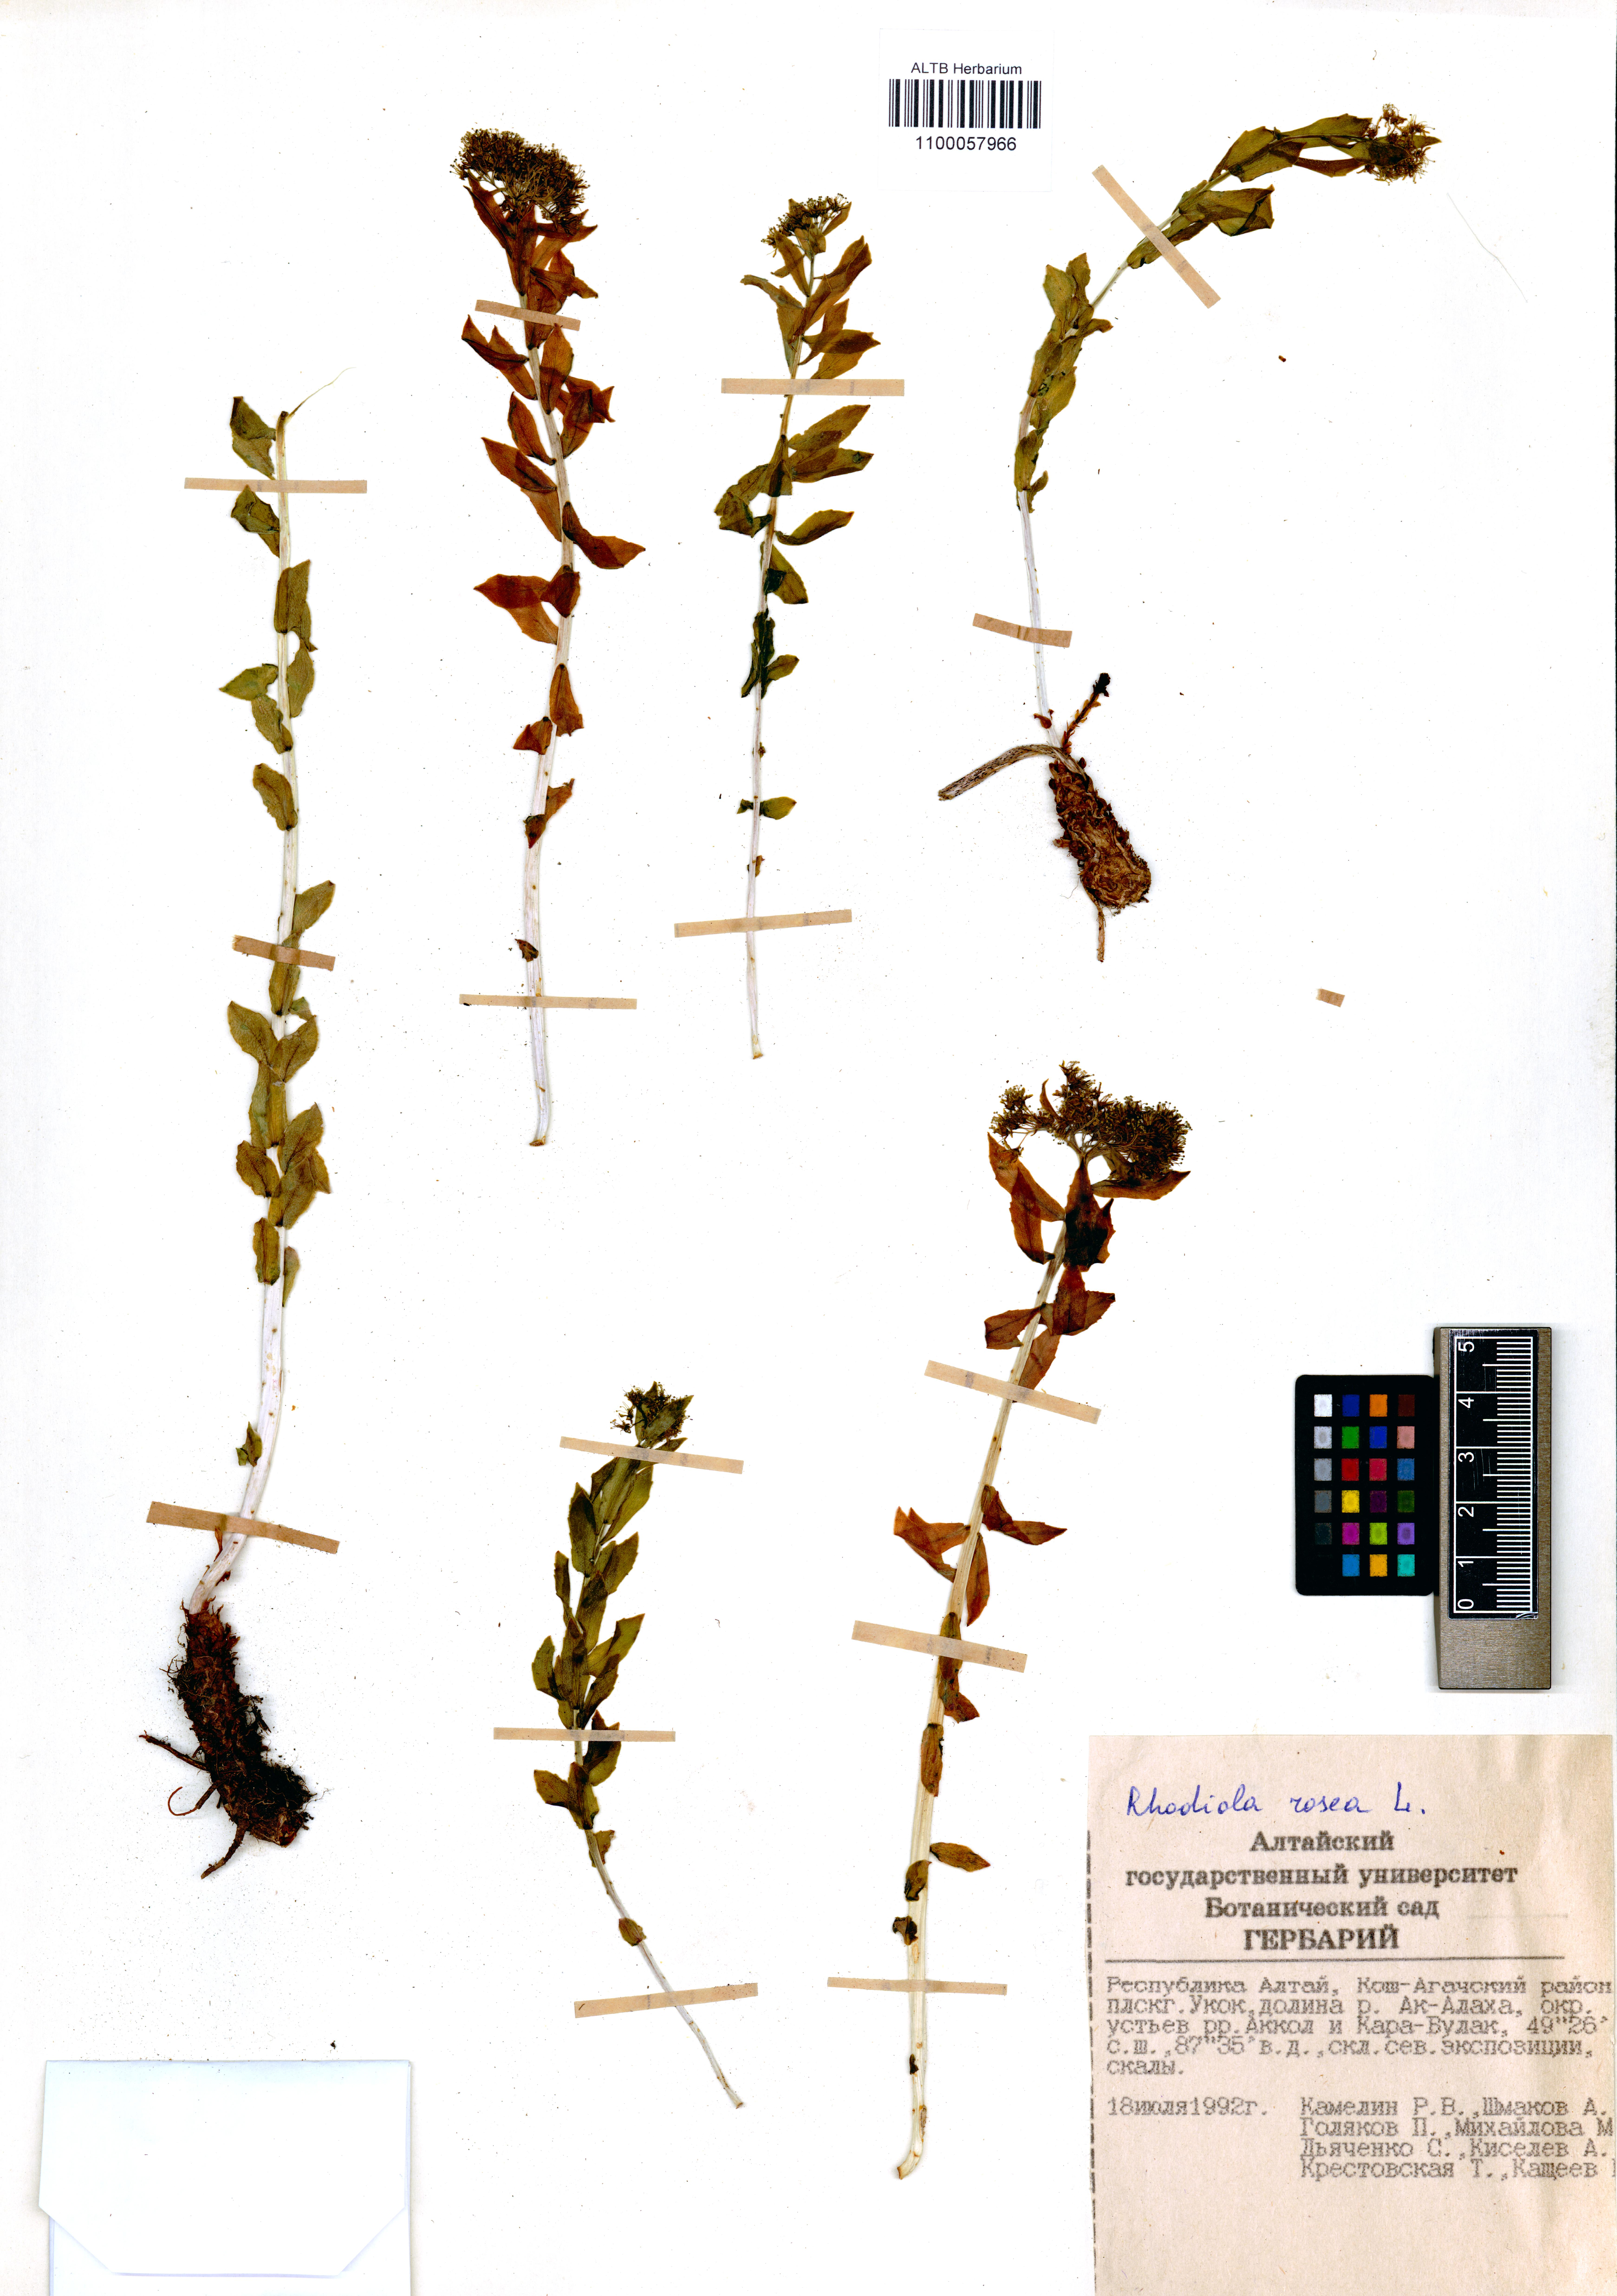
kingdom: Plantae
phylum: Tracheophyta
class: Magnoliopsida
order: Saxifragales
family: Crassulaceae
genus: Rhodiola
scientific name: Rhodiola rosea
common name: Roseroot
